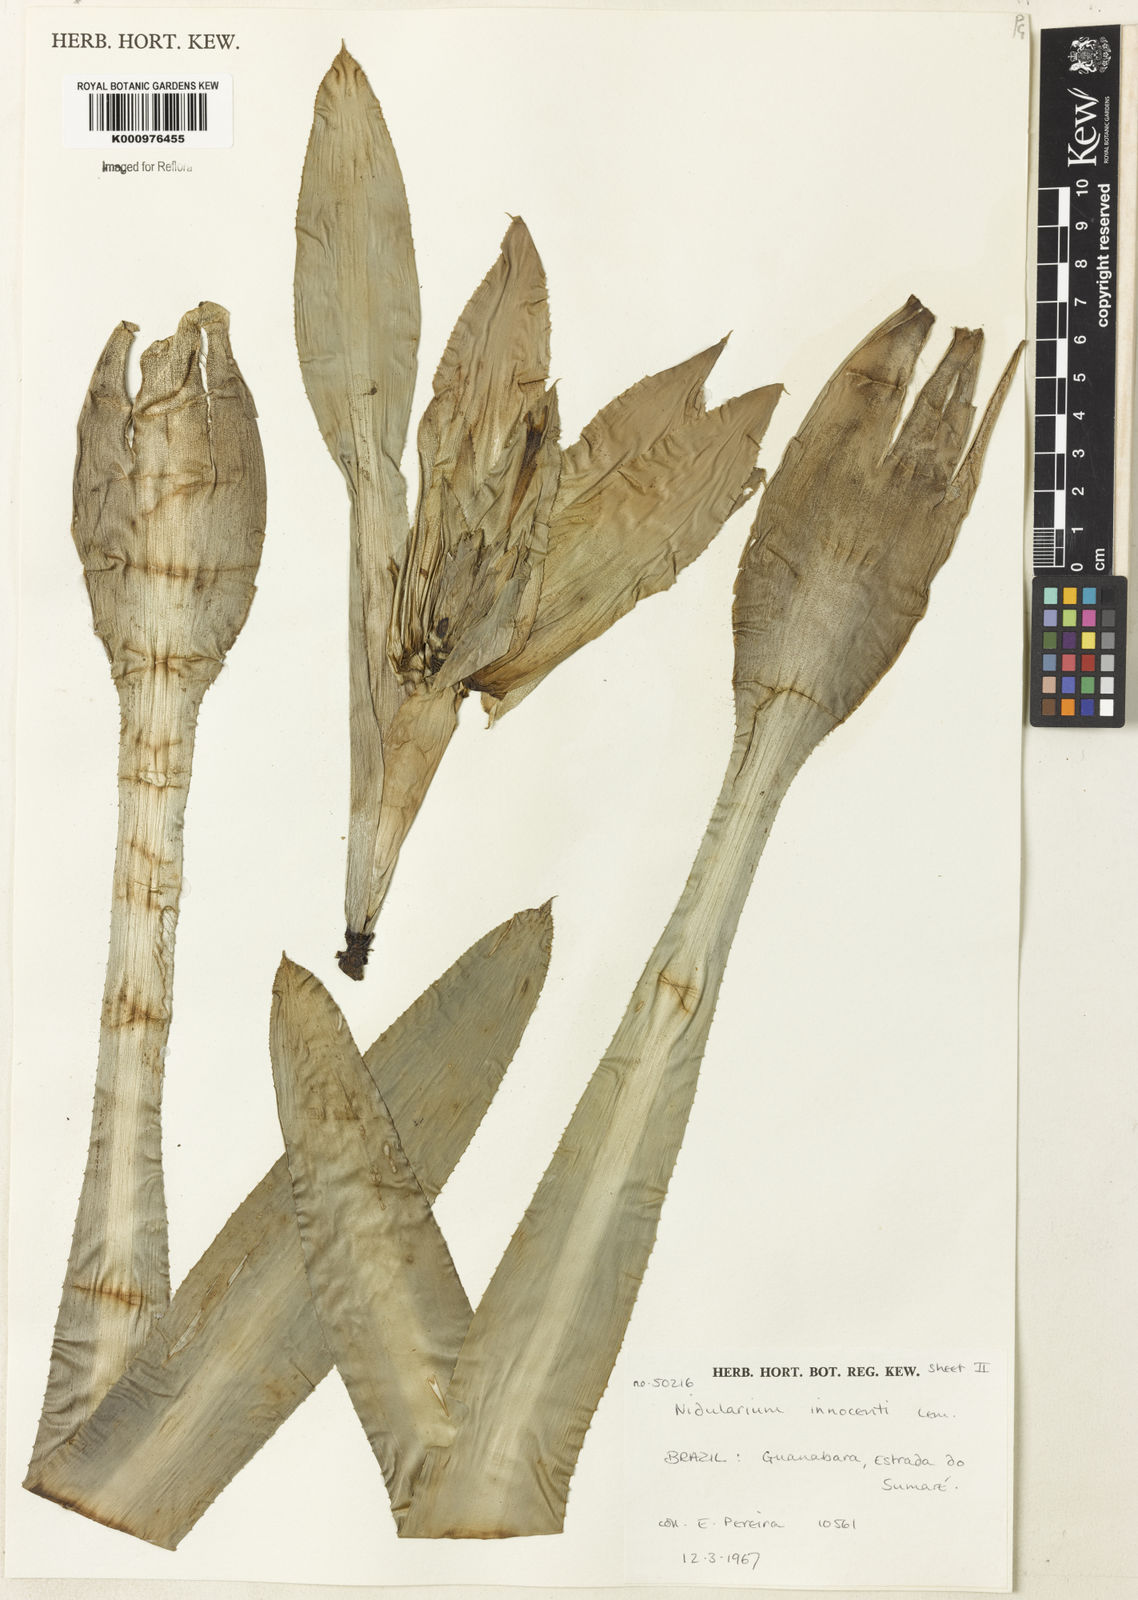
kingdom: Plantae
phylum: Tracheophyta
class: Liliopsida
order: Poales
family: Bromeliaceae
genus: Nidularium
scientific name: Nidularium innocentii
